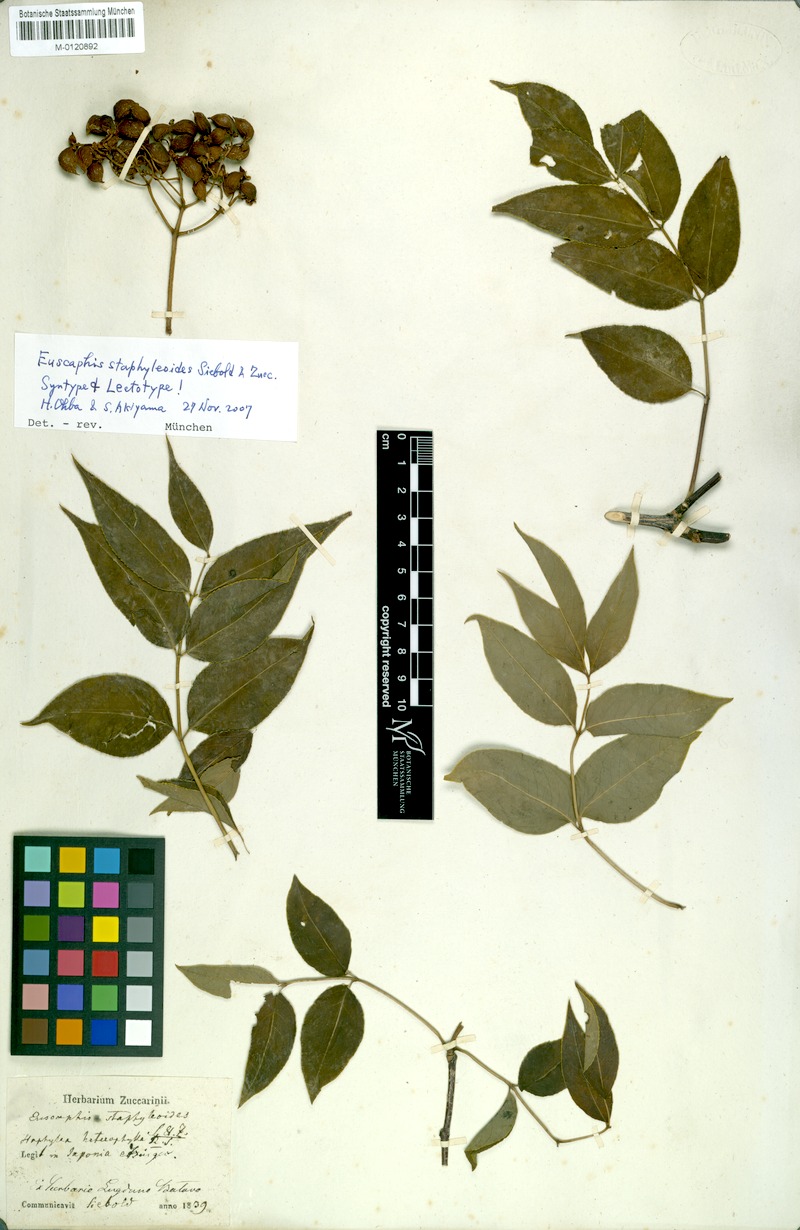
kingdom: Plantae
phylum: Tracheophyta
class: Magnoliopsida
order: Crossosomatales
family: Staphyleaceae
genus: Staphylea
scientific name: Staphylea japonica
